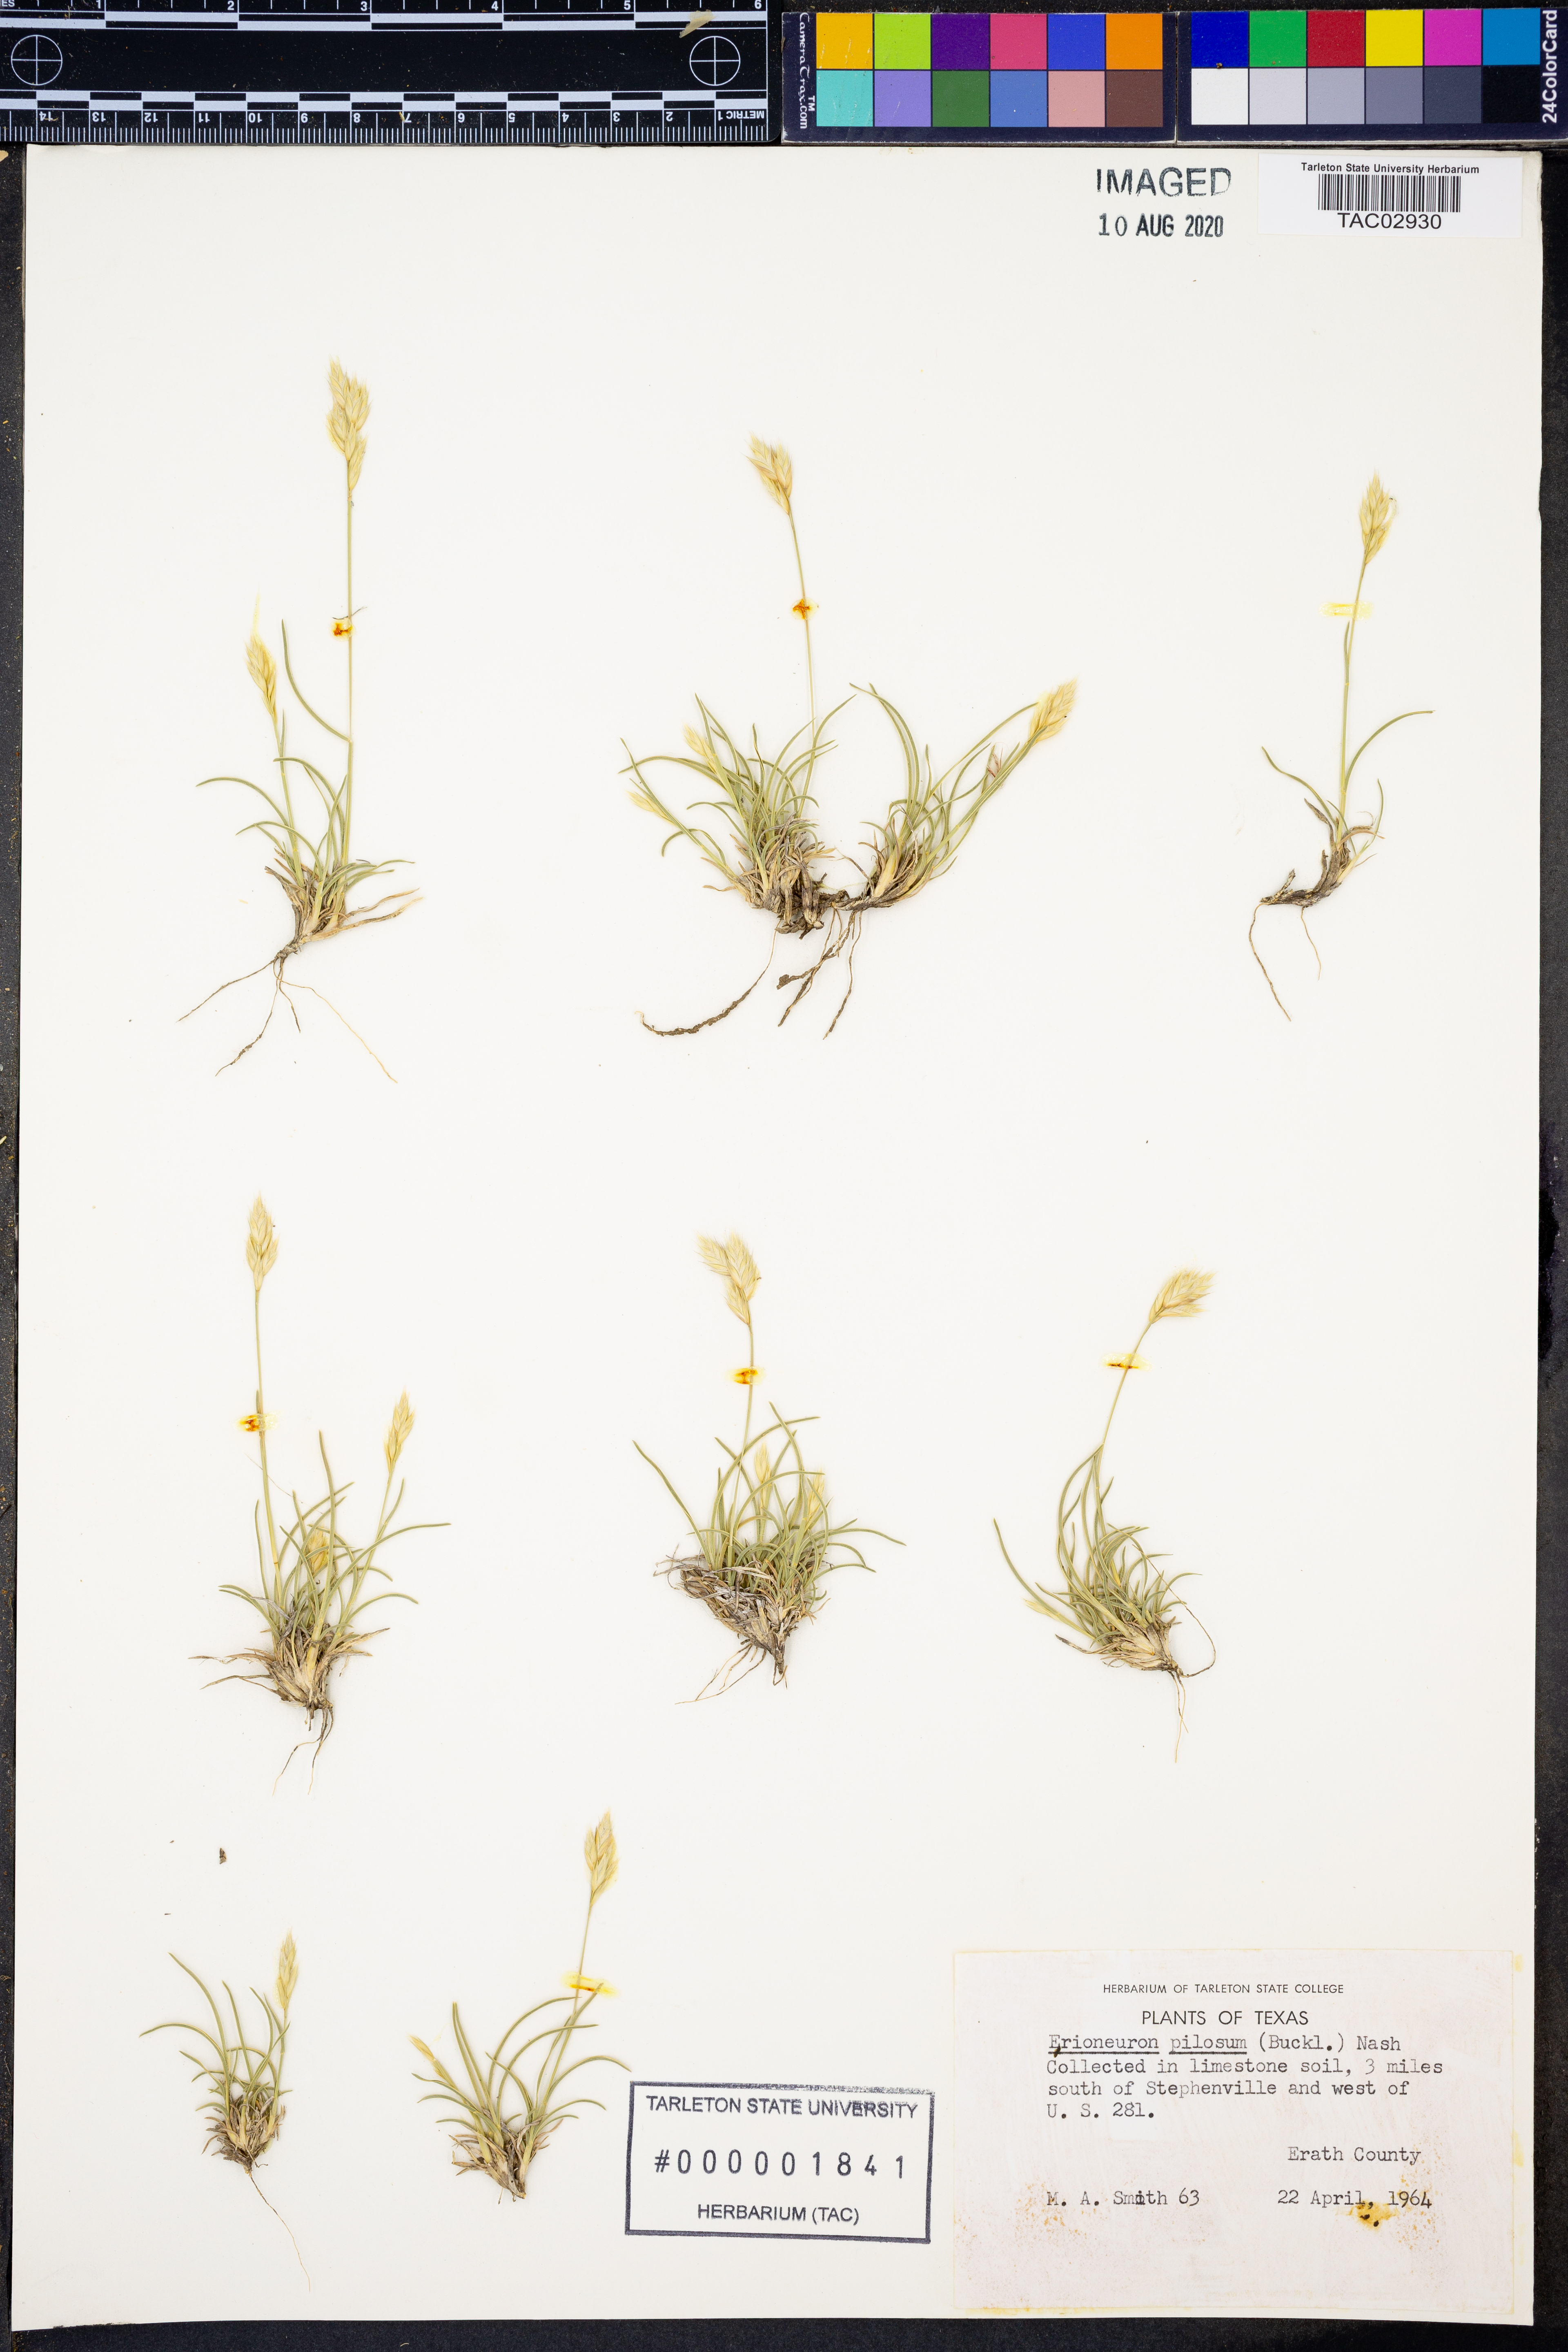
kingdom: Plantae
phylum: Tracheophyta
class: Liliopsida
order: Poales
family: Poaceae
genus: Erioneuron
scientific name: Erioneuron pilosum
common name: Hairy woolly grass
